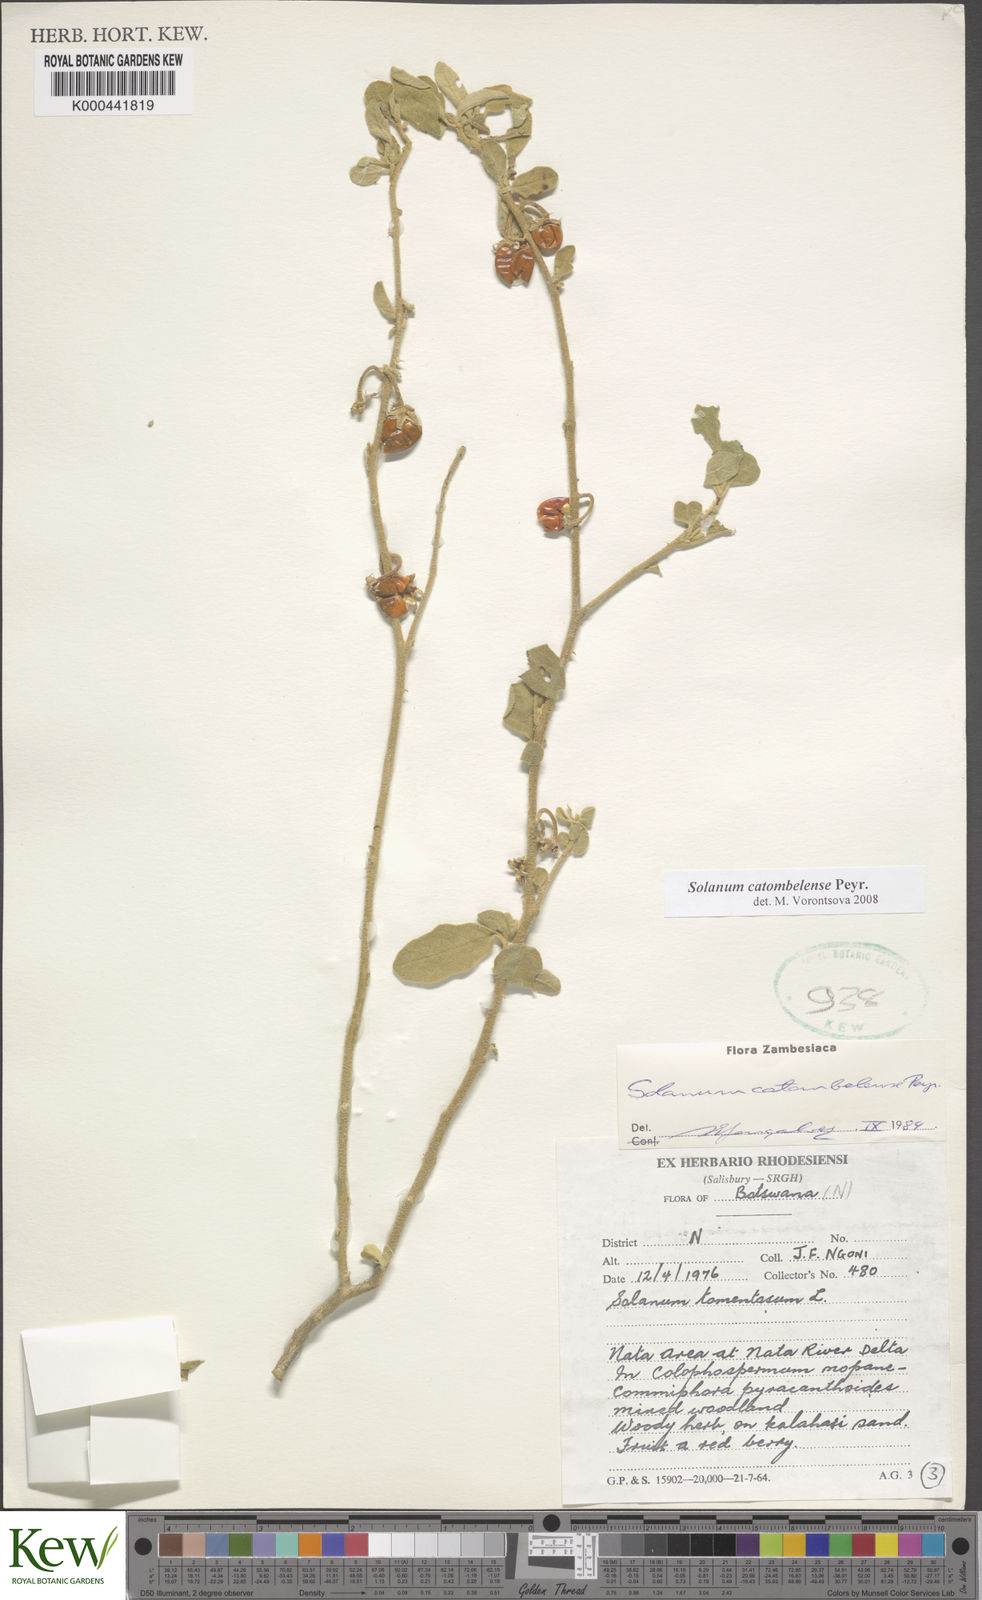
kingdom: Plantae
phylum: Tracheophyta
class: Magnoliopsida
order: Solanales
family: Solanaceae
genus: Solanum
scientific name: Solanum catombelense
